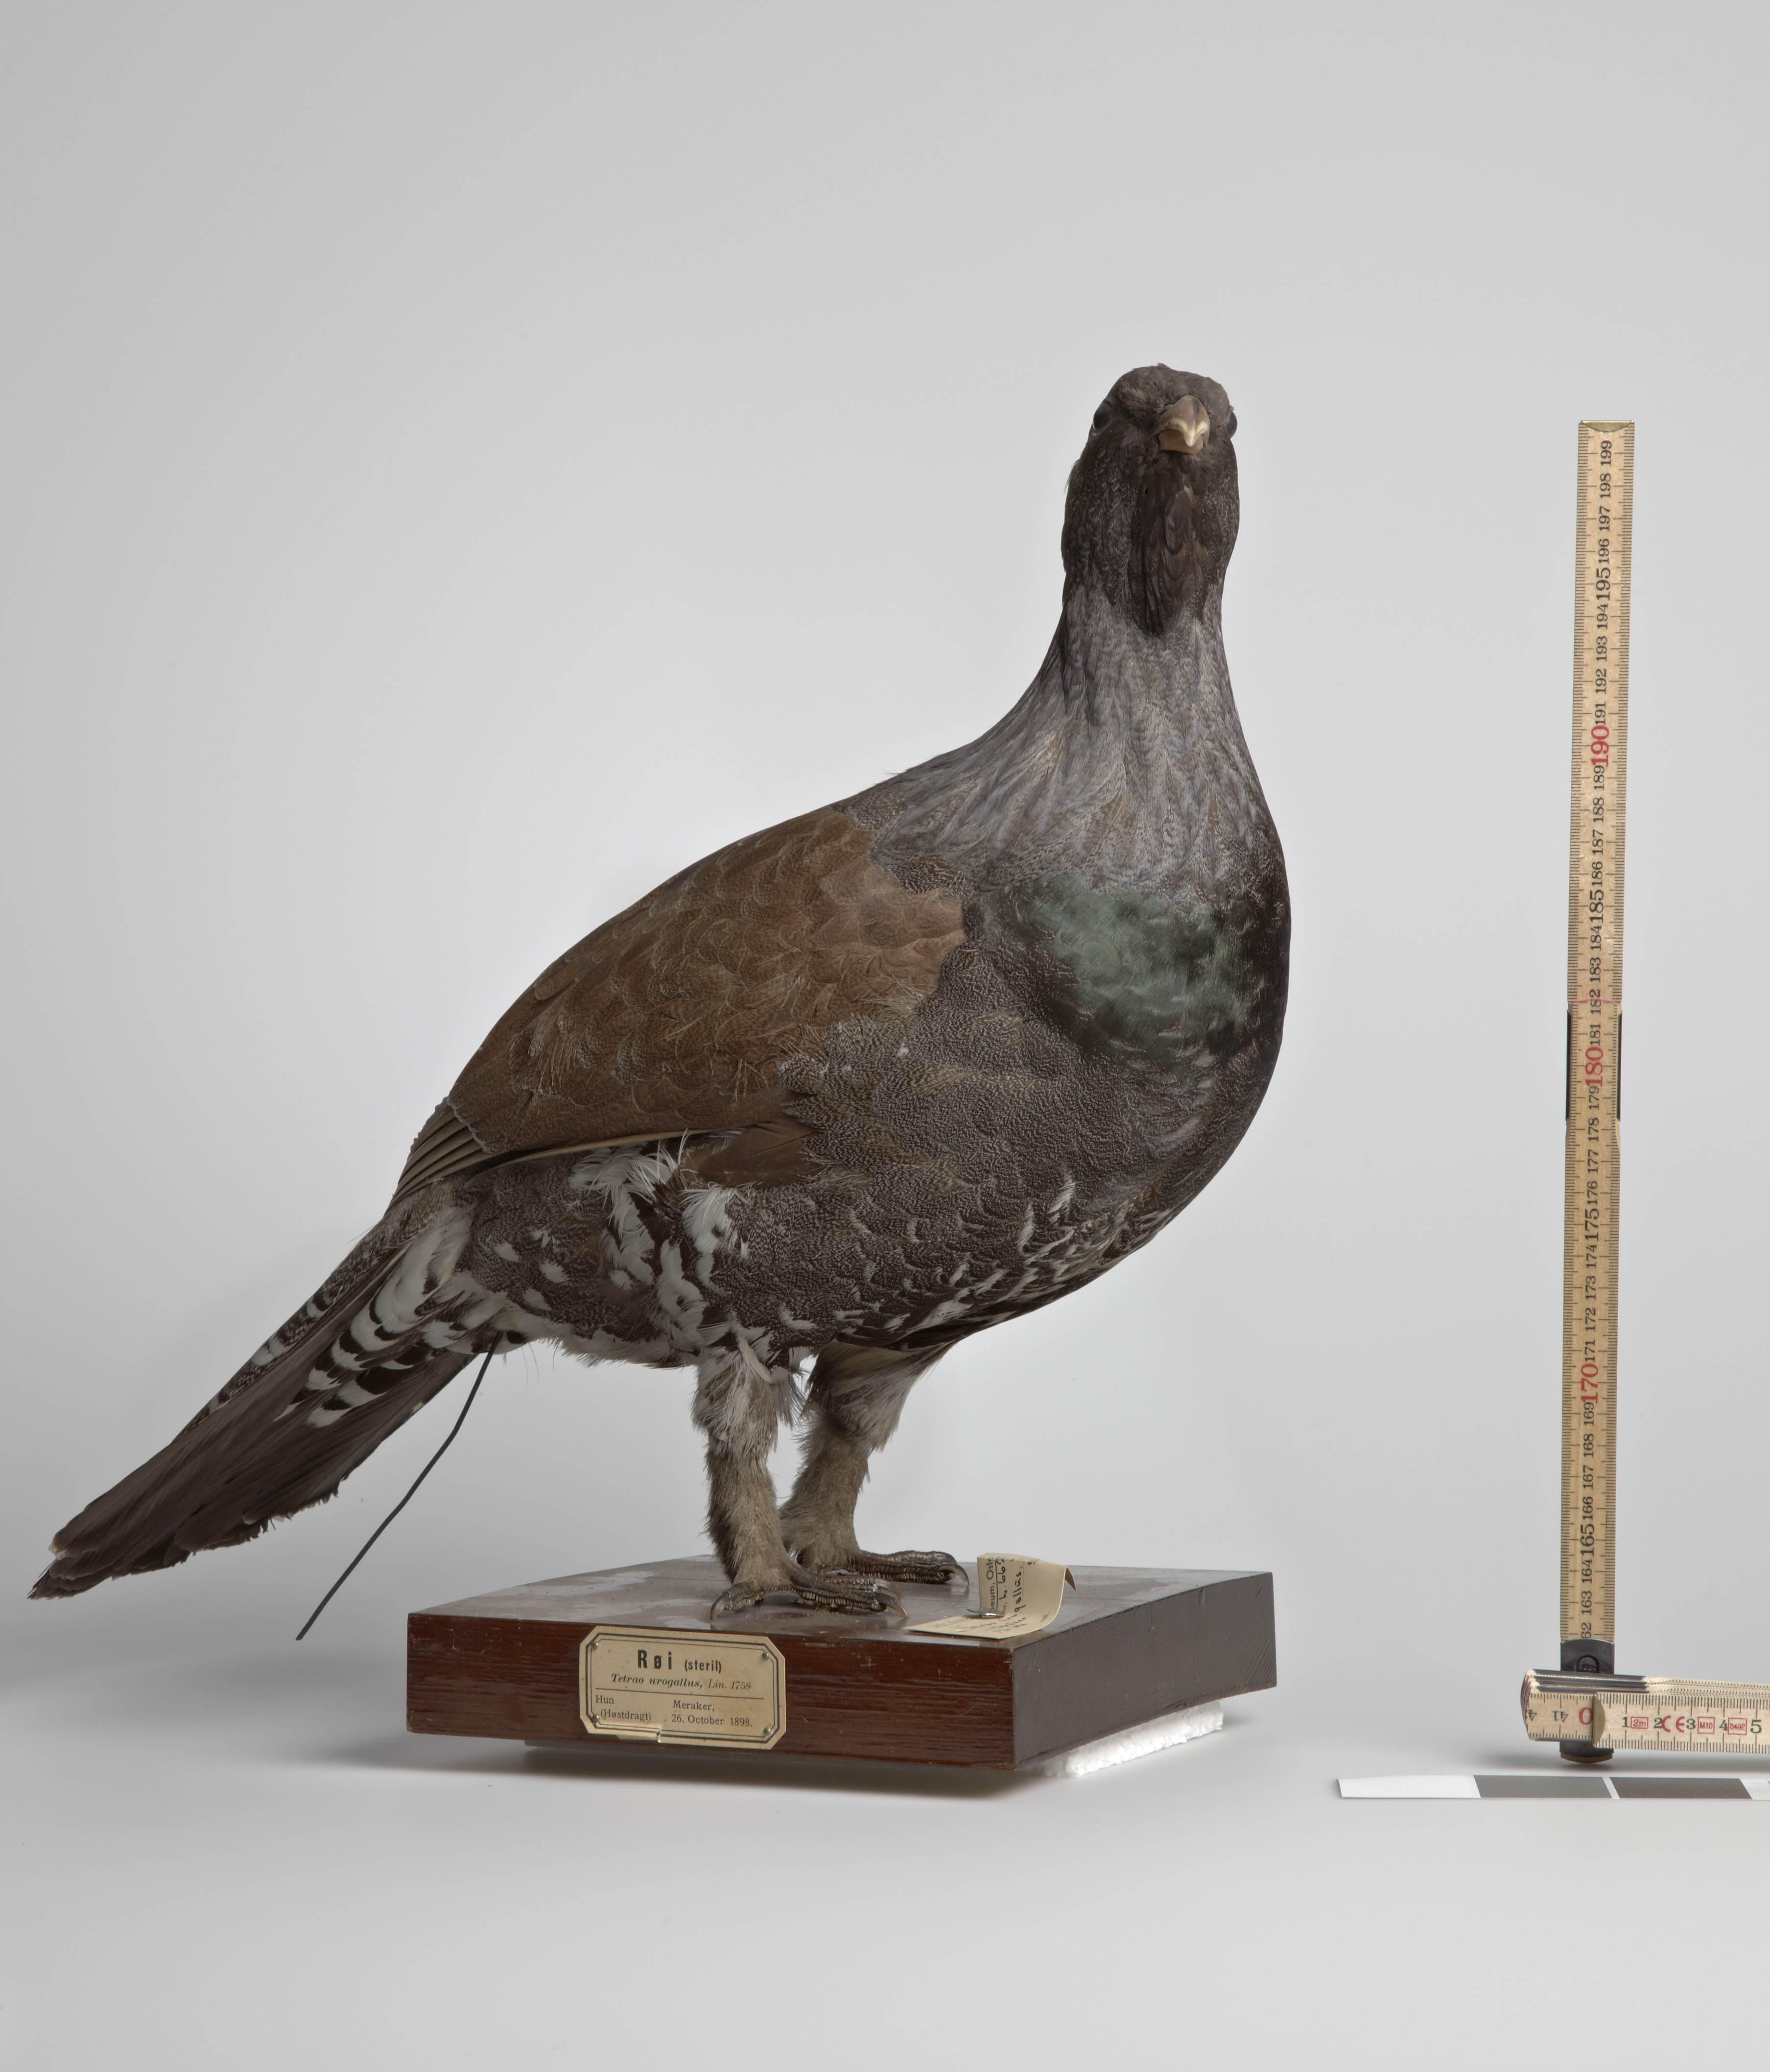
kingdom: Animalia
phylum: Chordata
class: Aves
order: Galliformes
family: Phasianidae
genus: Tetrao
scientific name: Tetrao urogallus
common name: Western capercaillie
